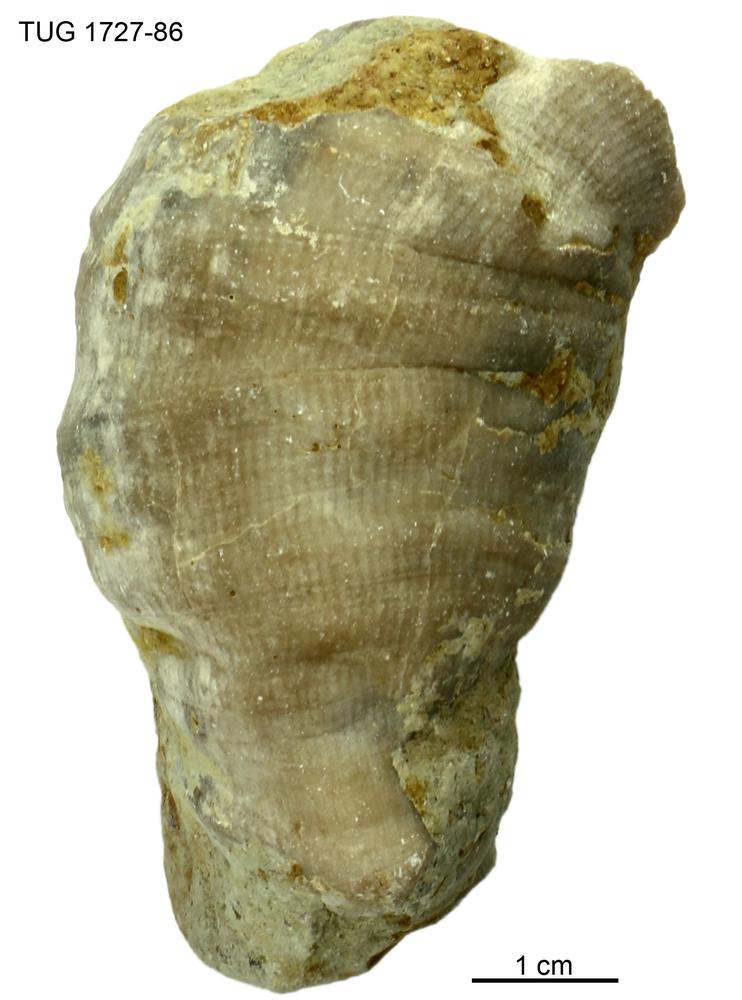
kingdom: Animalia
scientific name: Animalia
